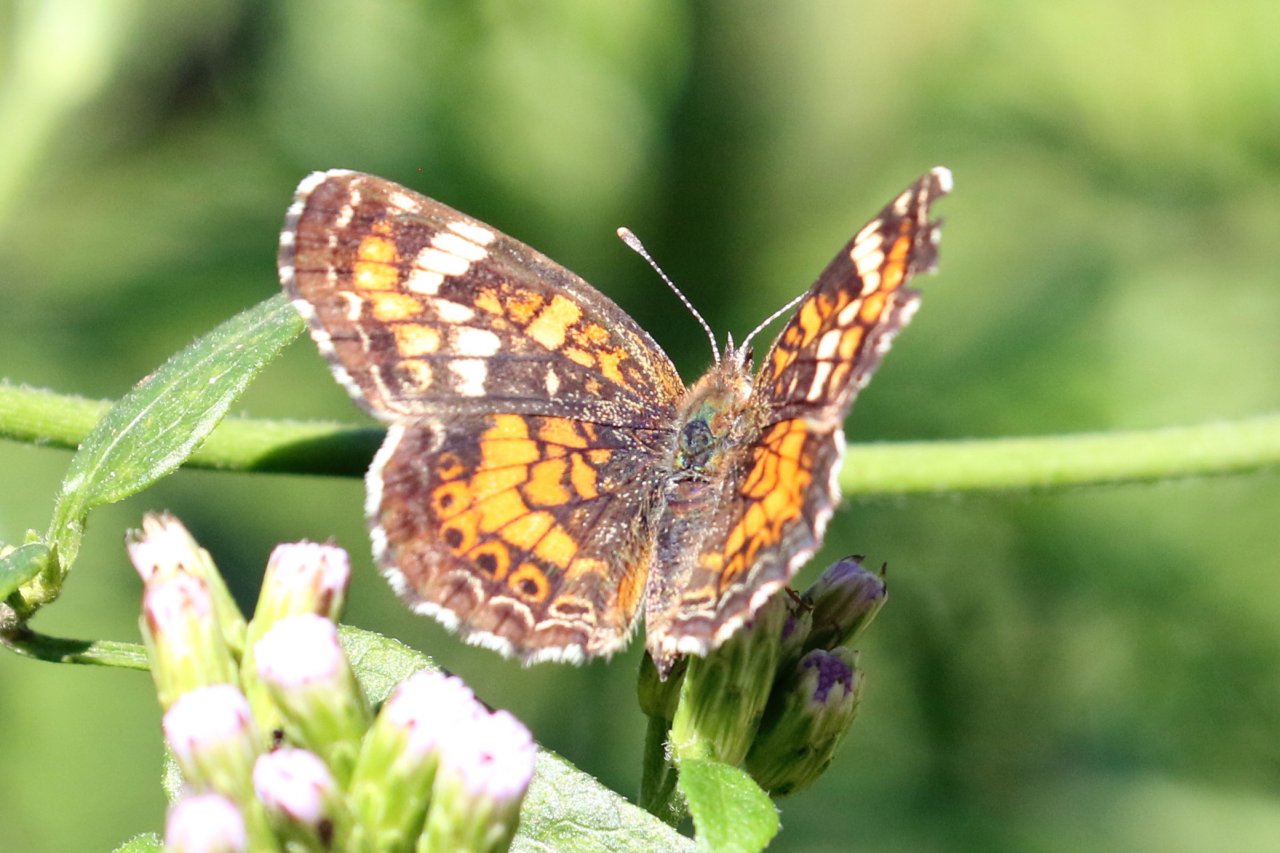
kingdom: Animalia
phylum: Arthropoda
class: Insecta
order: Lepidoptera
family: Nymphalidae
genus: Phyciodes
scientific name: Phyciodes phaon
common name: Phaon Crescent
